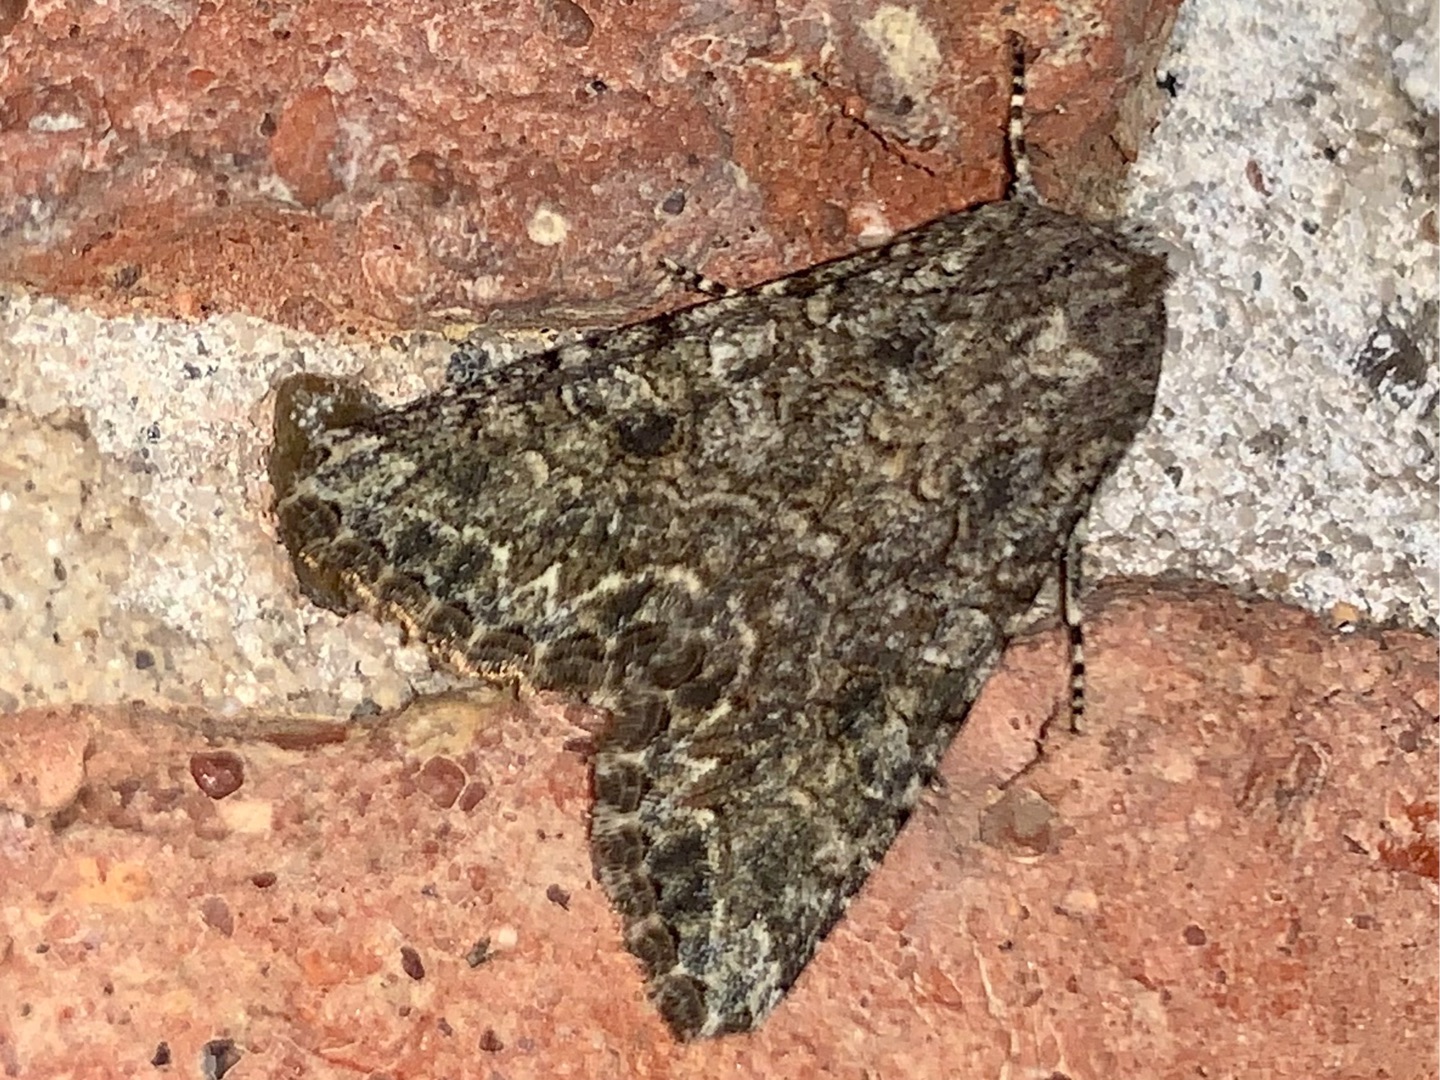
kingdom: Animalia
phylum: Arthropoda
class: Insecta
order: Lepidoptera
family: Noctuidae
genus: Anarta
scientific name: Anarta trifolii
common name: Bedeugle
